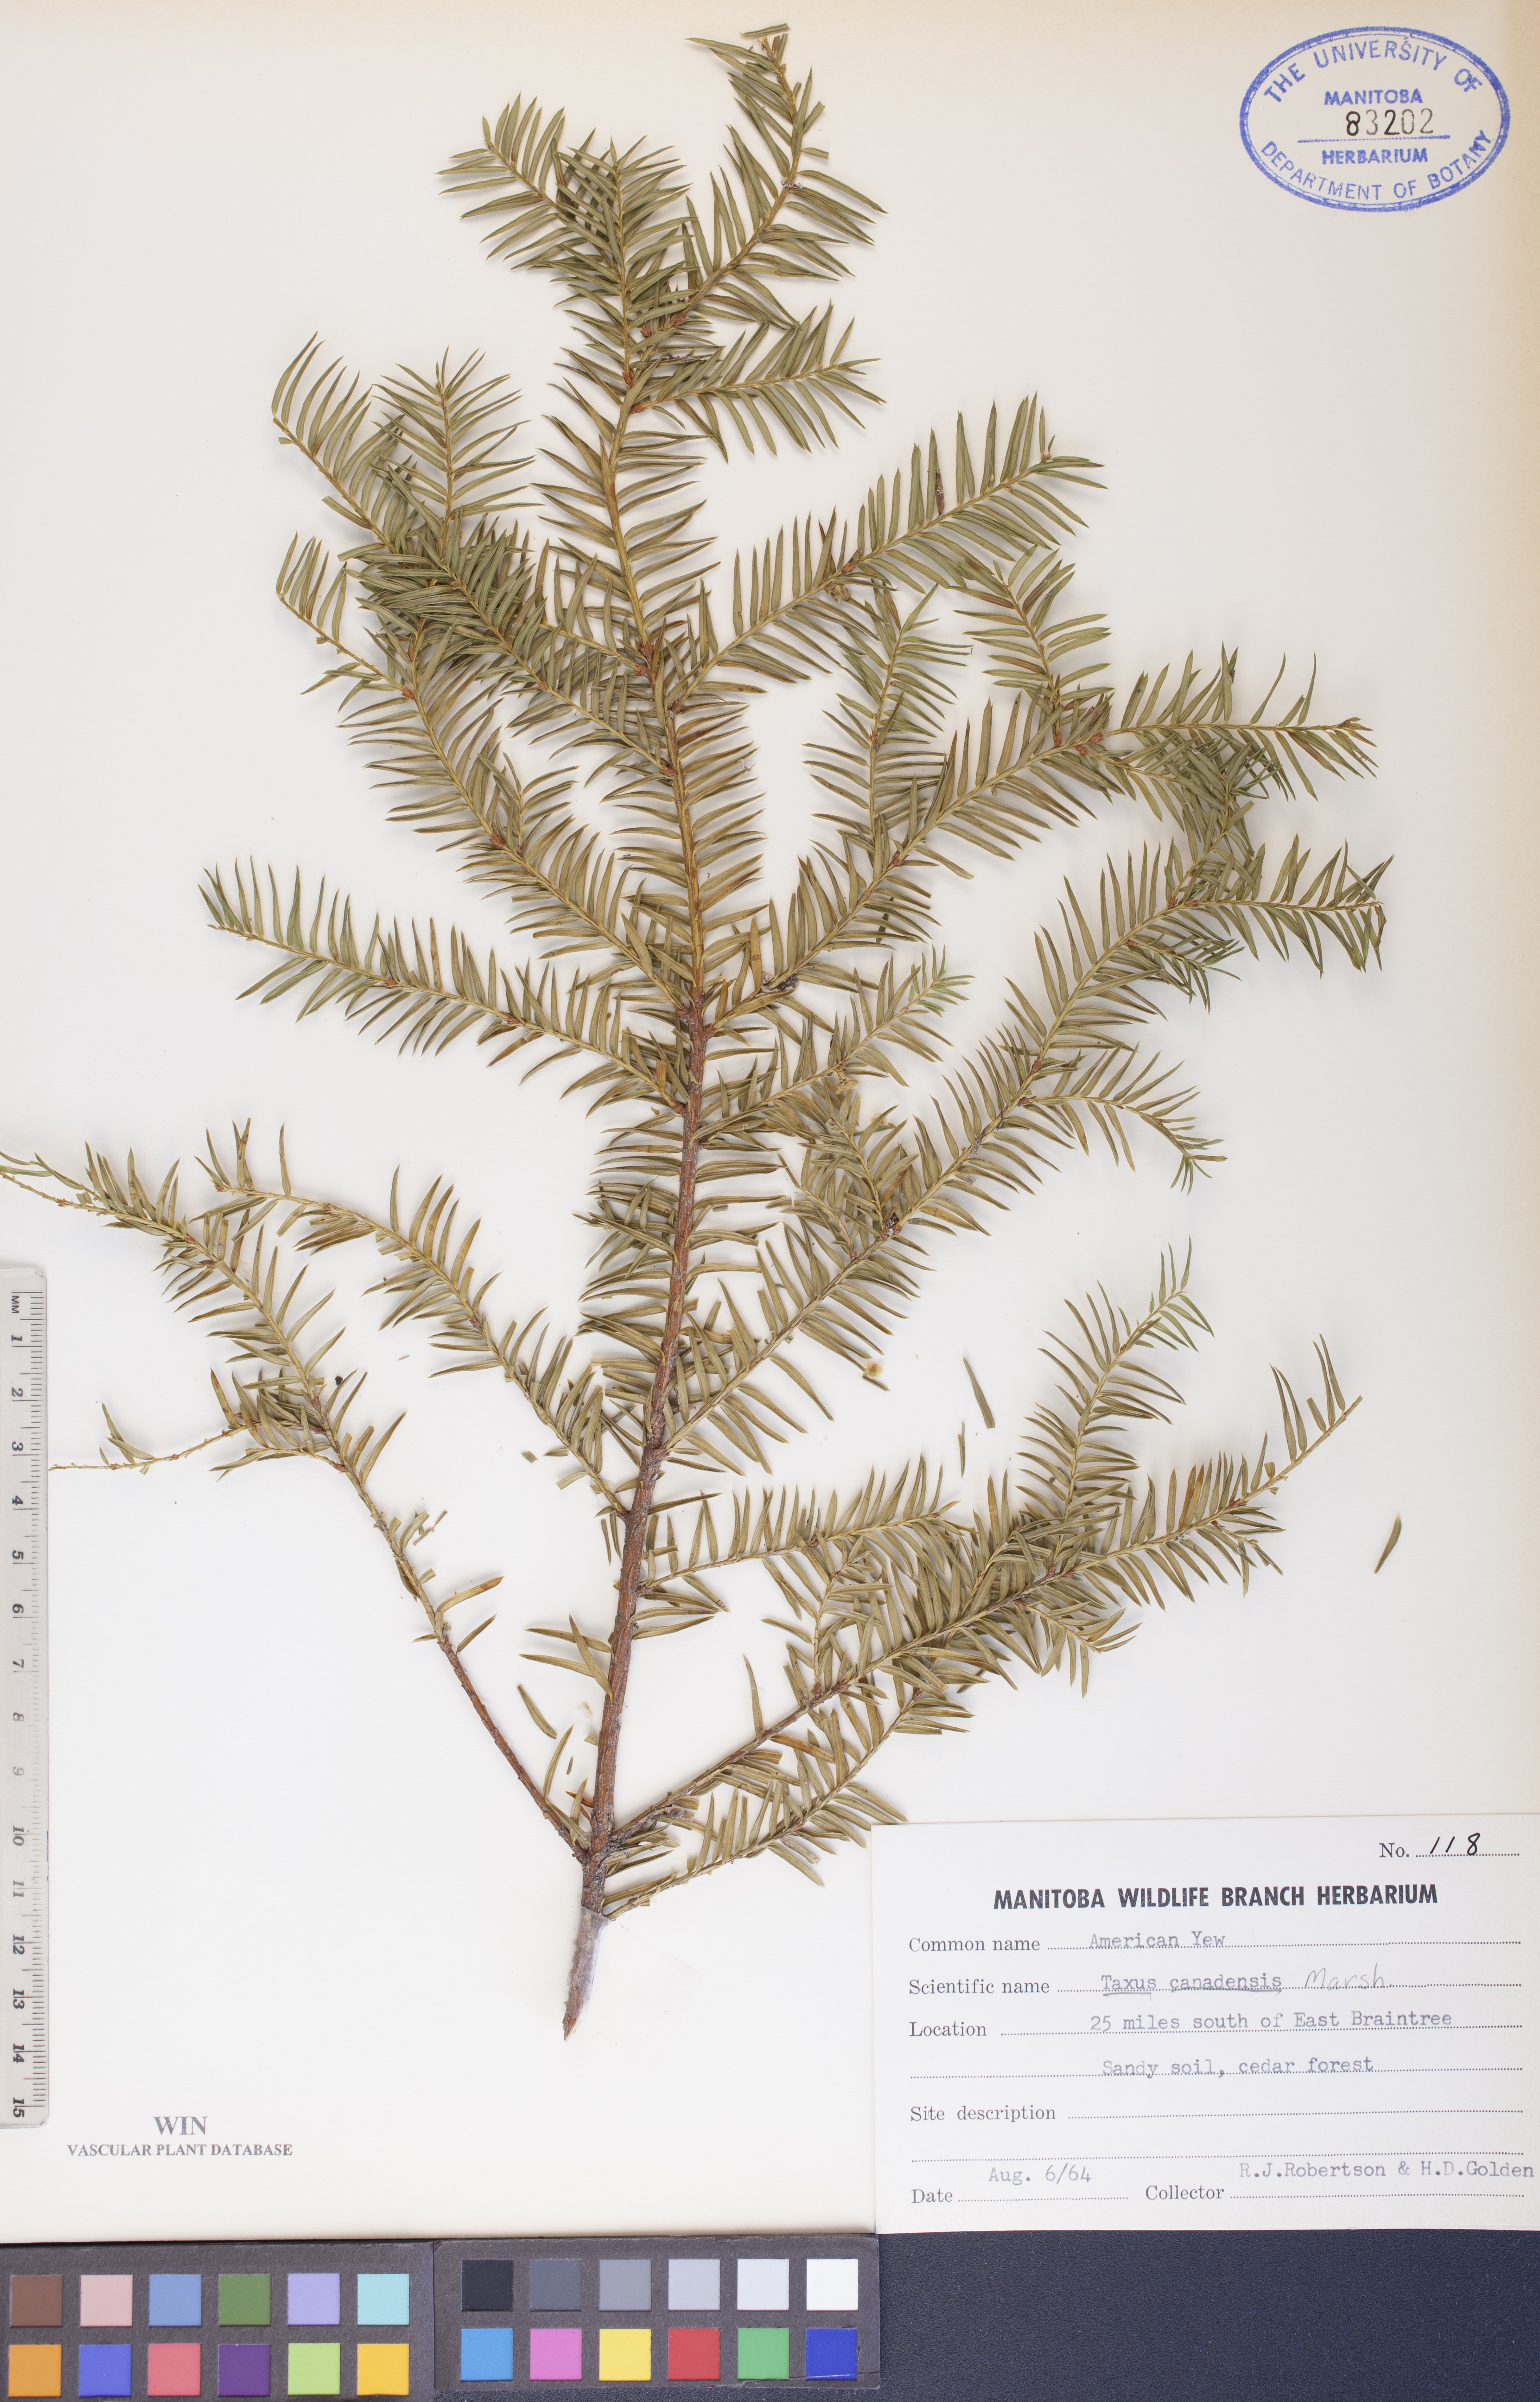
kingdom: Plantae
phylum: Tracheophyta
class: Pinopsida
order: Pinales
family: Taxaceae
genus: Taxus
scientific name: Taxus canadensis
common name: American yew
